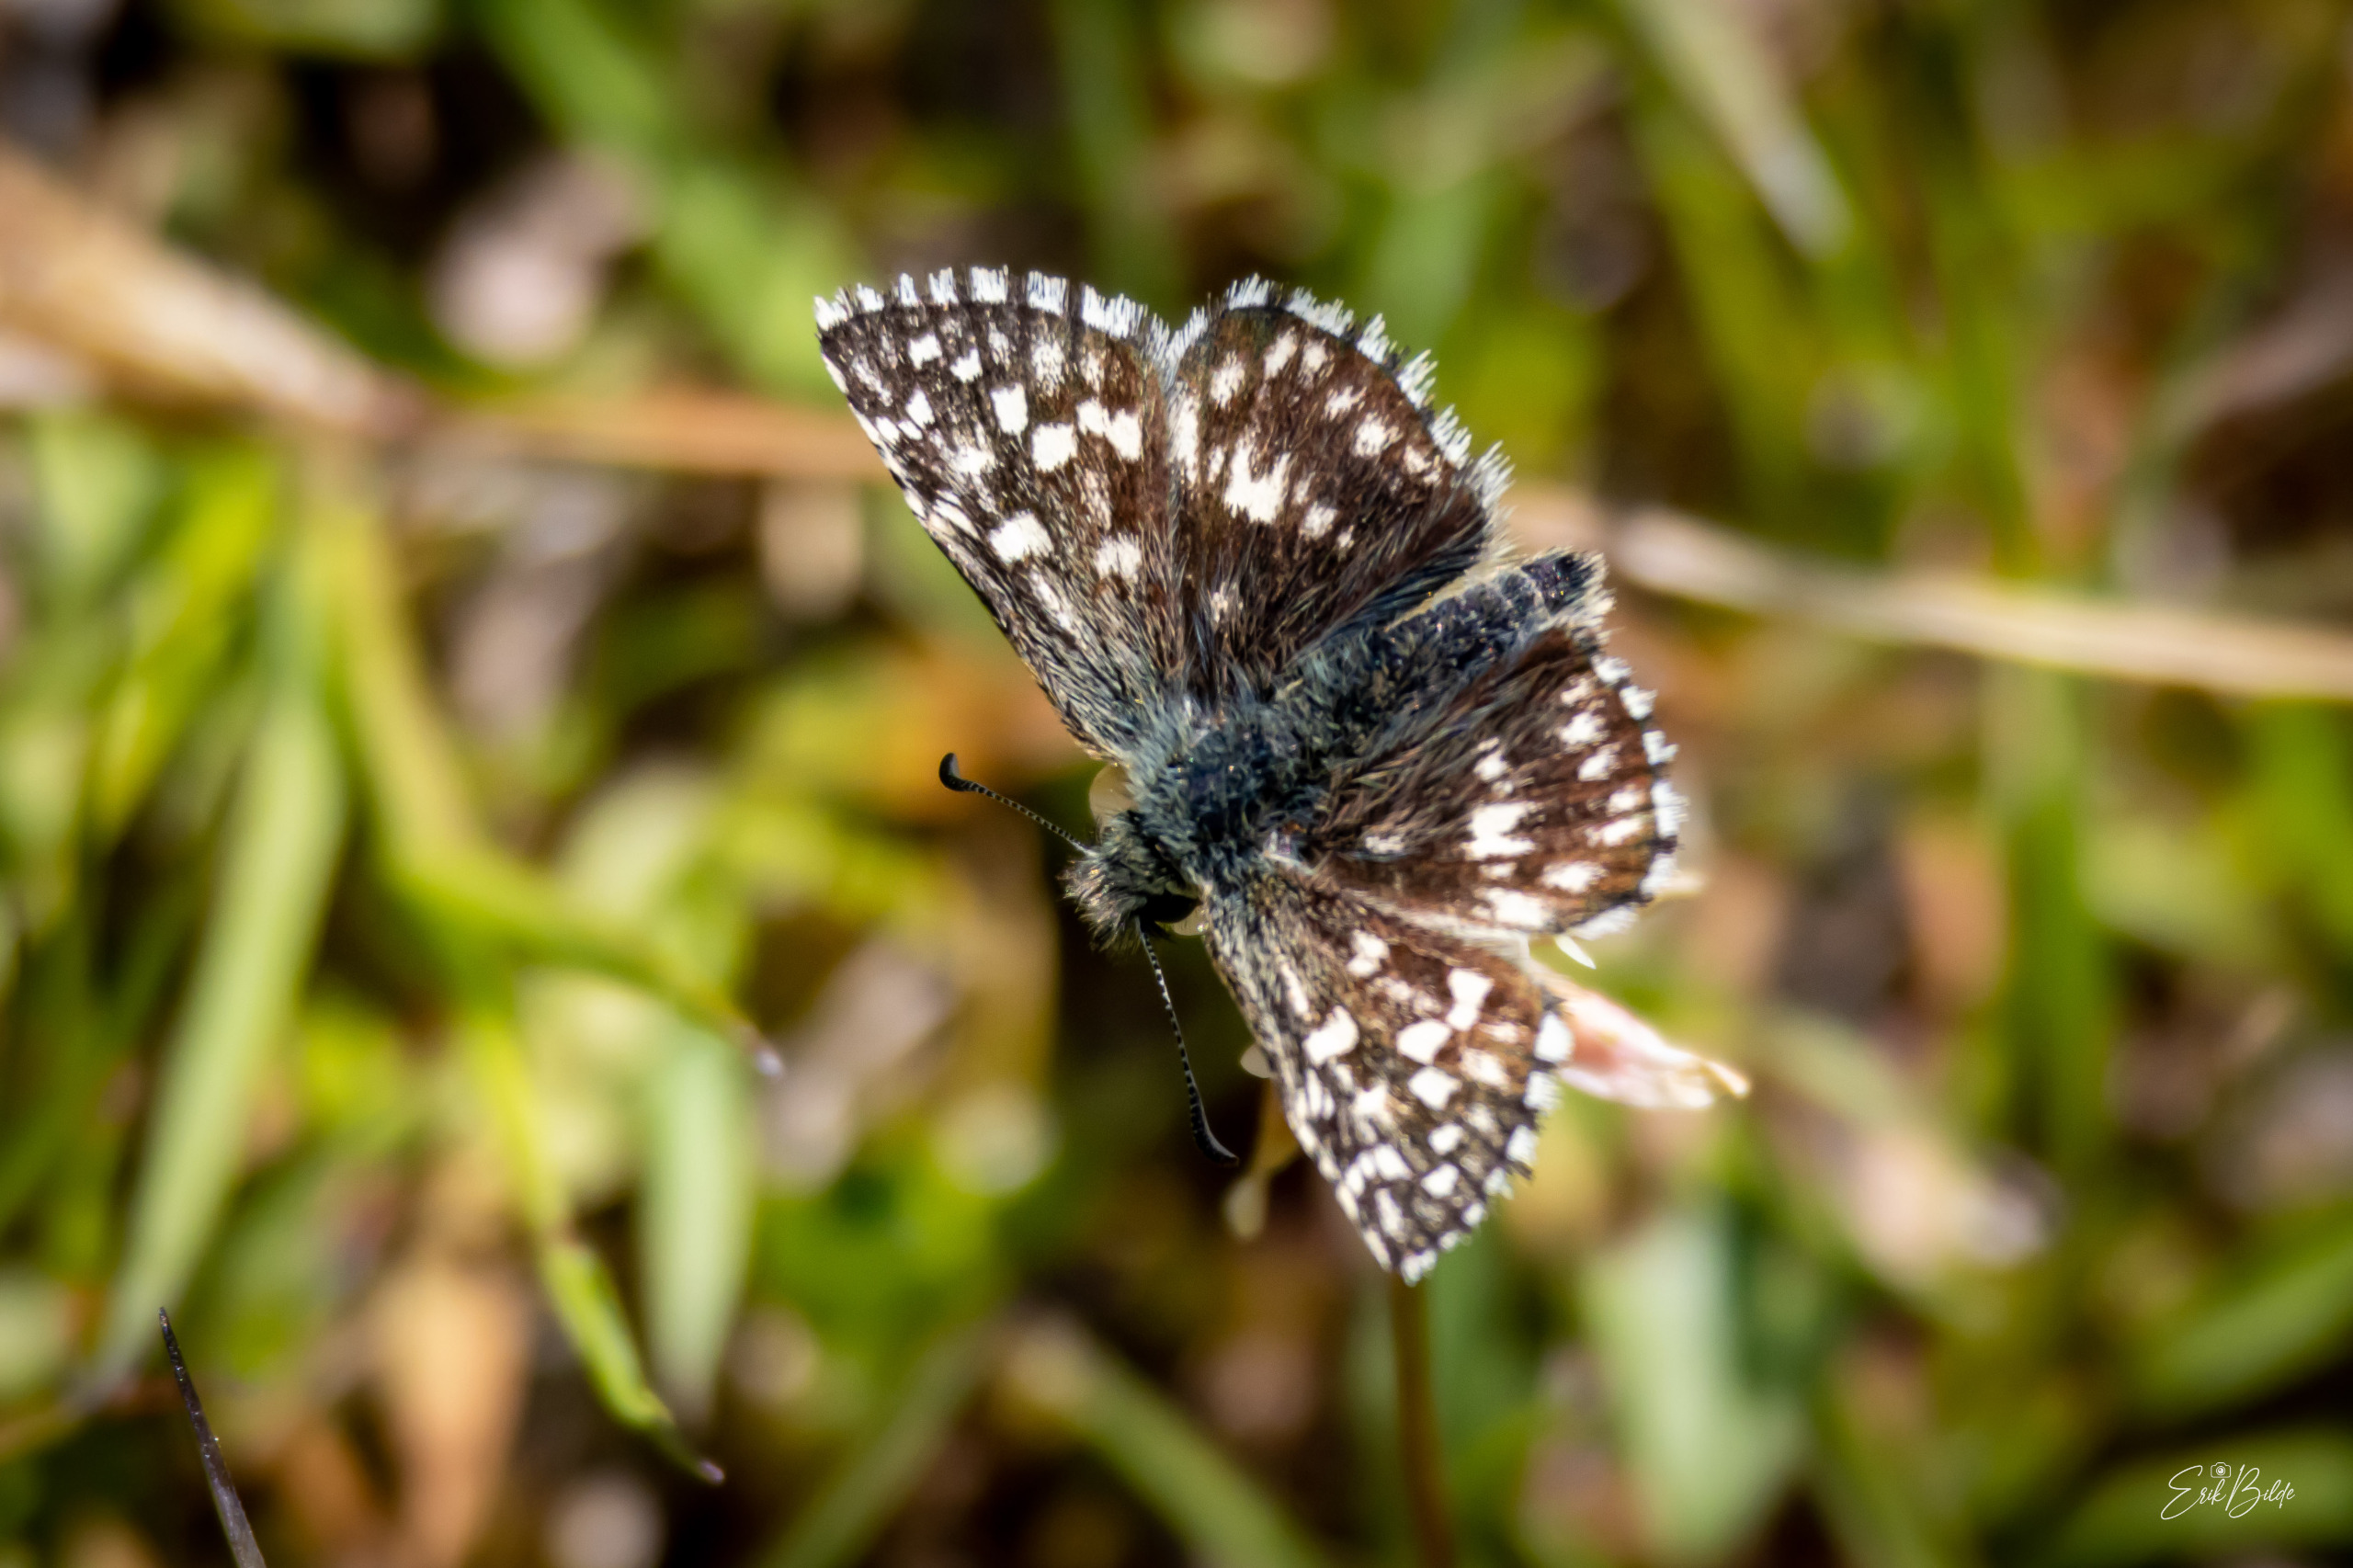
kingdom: Animalia
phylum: Arthropoda
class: Insecta
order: Lepidoptera
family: Hesperiidae
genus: Pyrgus
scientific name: Pyrgus malvae
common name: Spættet bredpande
